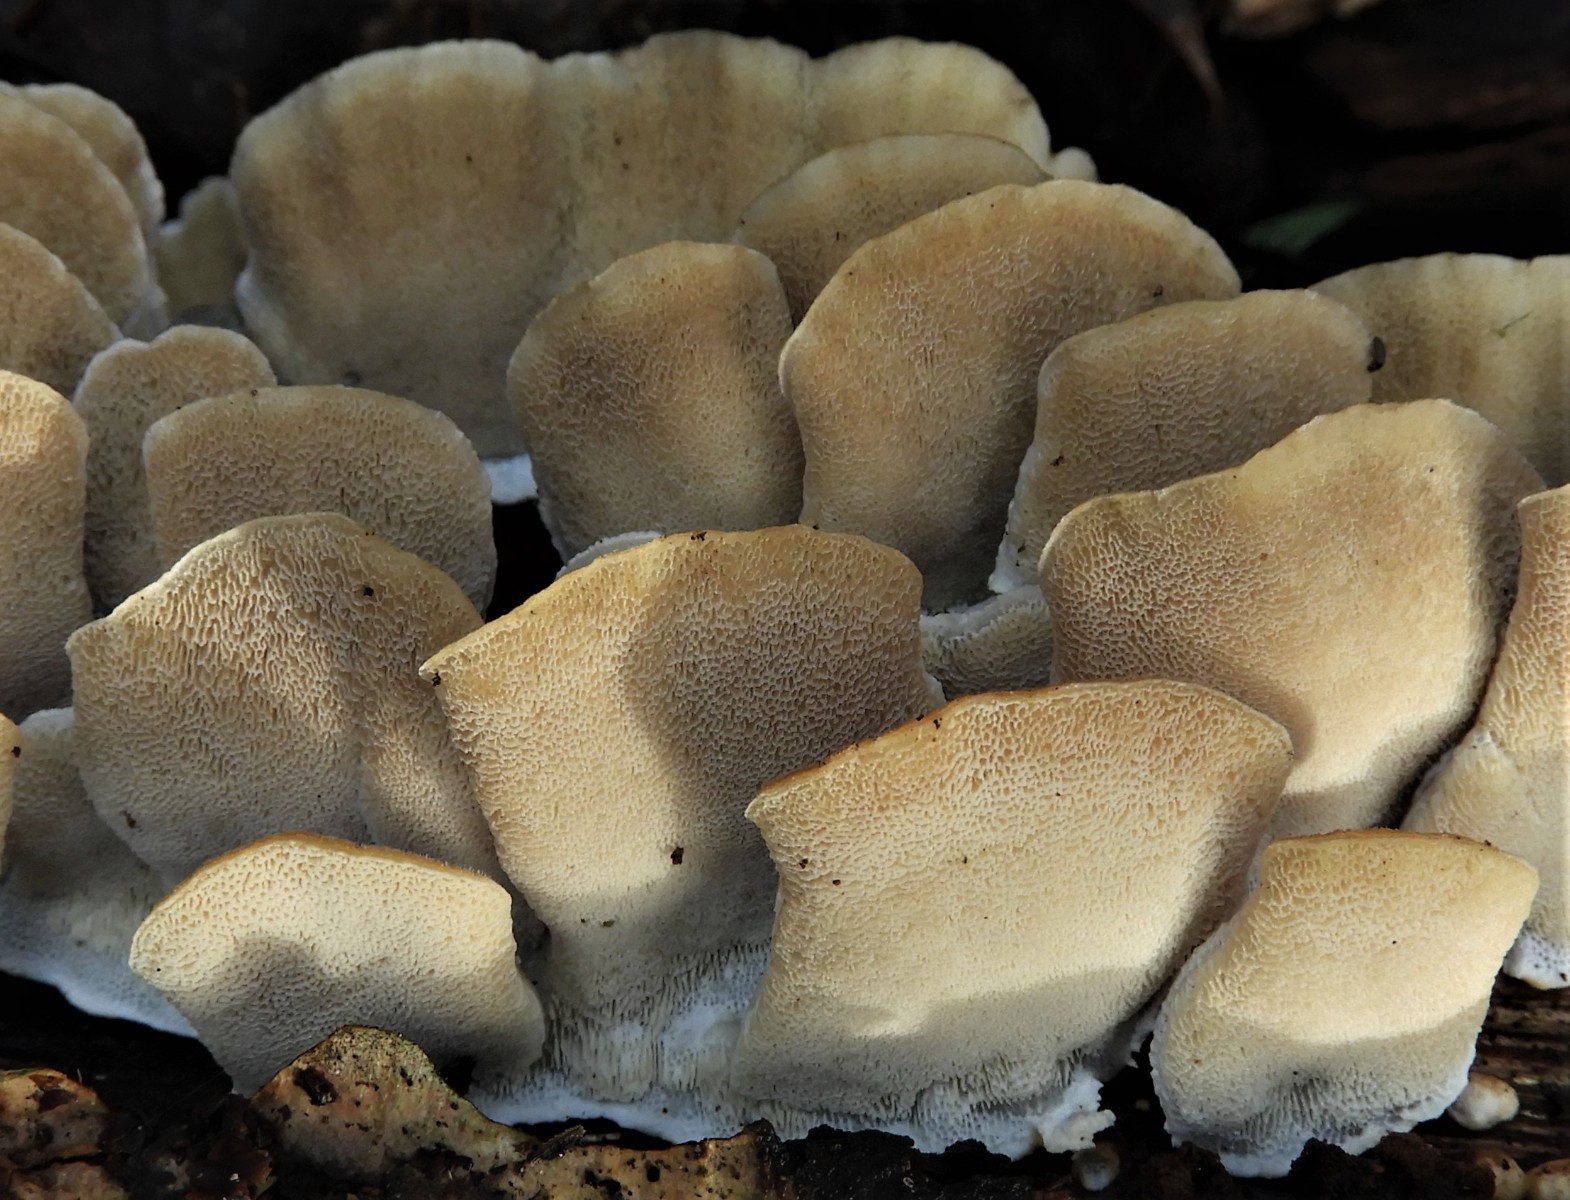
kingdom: Fungi
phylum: Basidiomycota
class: Agaricomycetes
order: Polyporales
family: Polyporaceae
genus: Trametes
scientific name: Trametes versicolor
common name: broget læderporesvamp
